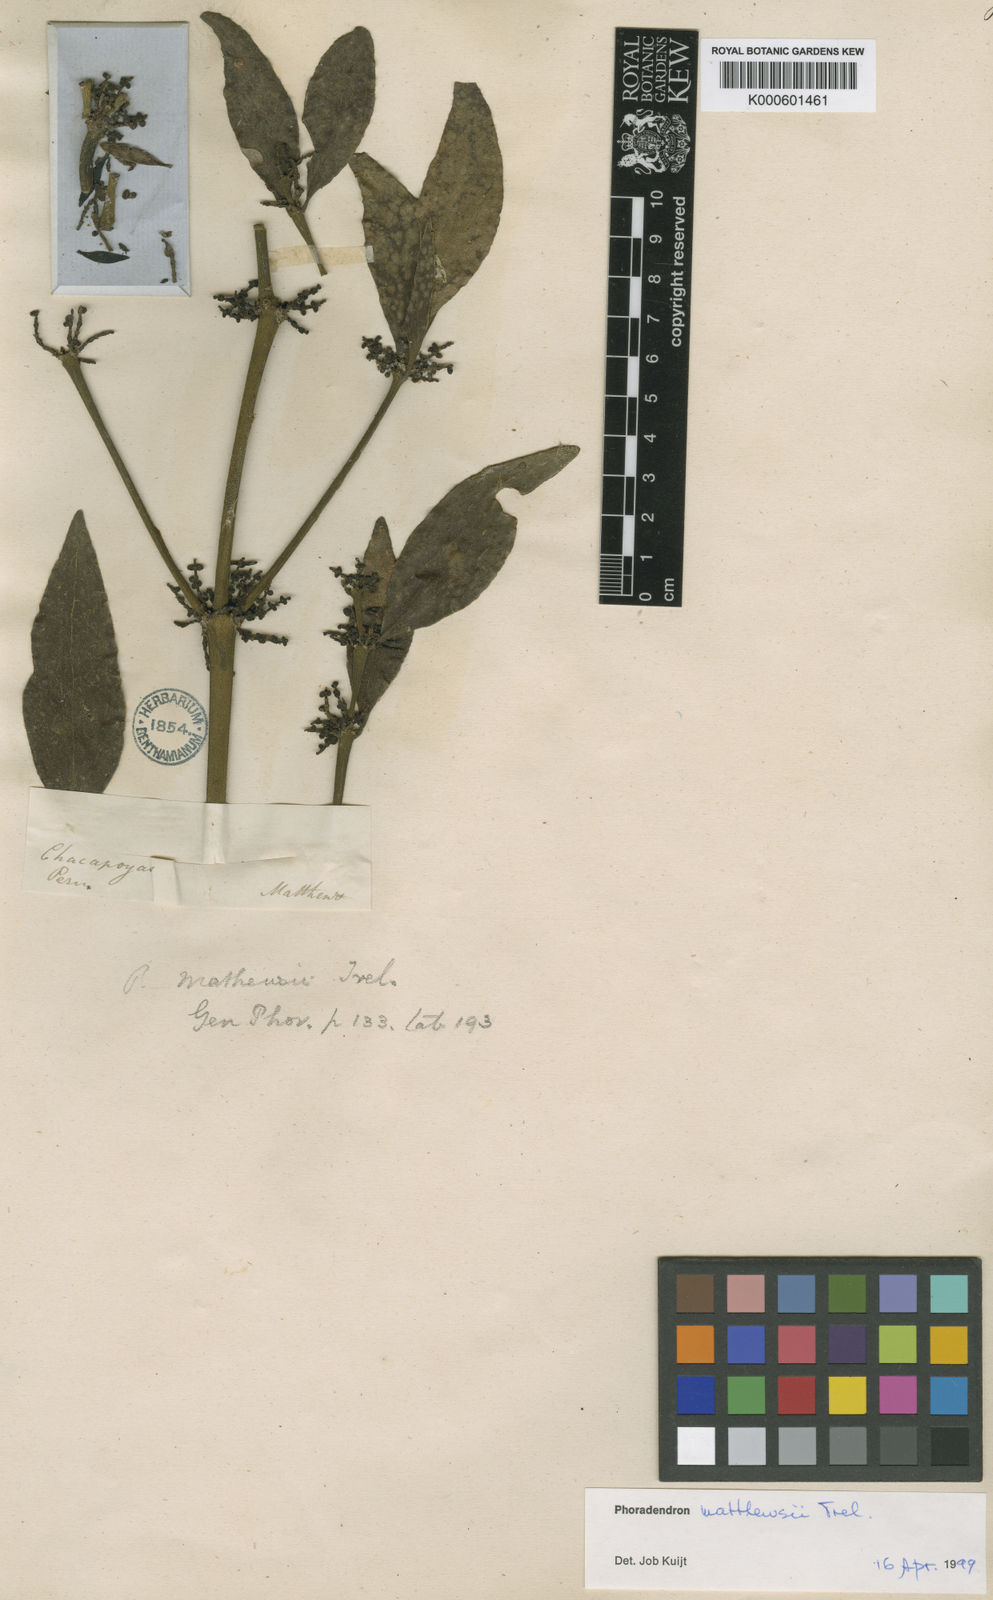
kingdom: Plantae
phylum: Tracheophyta
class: Magnoliopsida
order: Santalales
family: Viscaceae
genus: Phoradendron
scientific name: Phoradendron mathewsii
